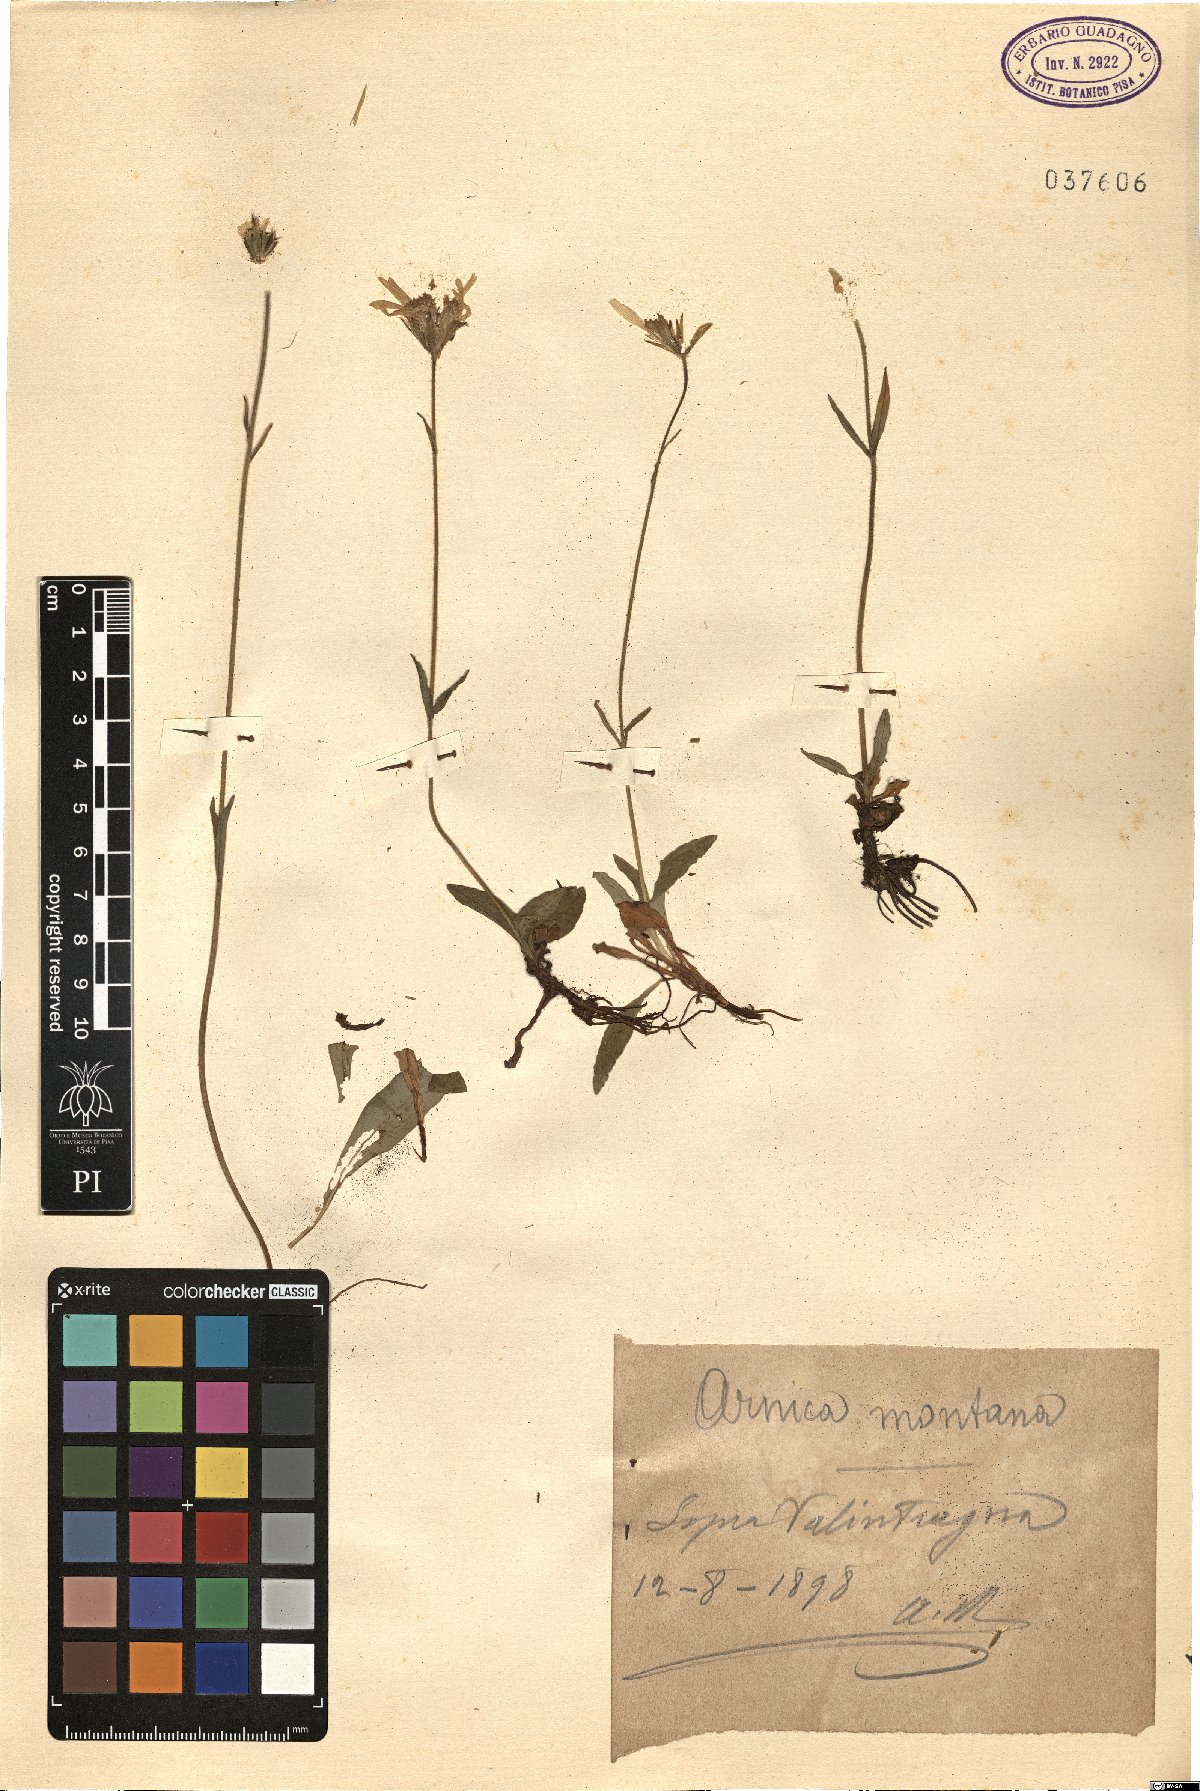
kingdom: Plantae
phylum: Tracheophyta
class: Magnoliopsida
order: Asterales
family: Asteraceae
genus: Arnica
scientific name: Arnica montana
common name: Leopard's bane
